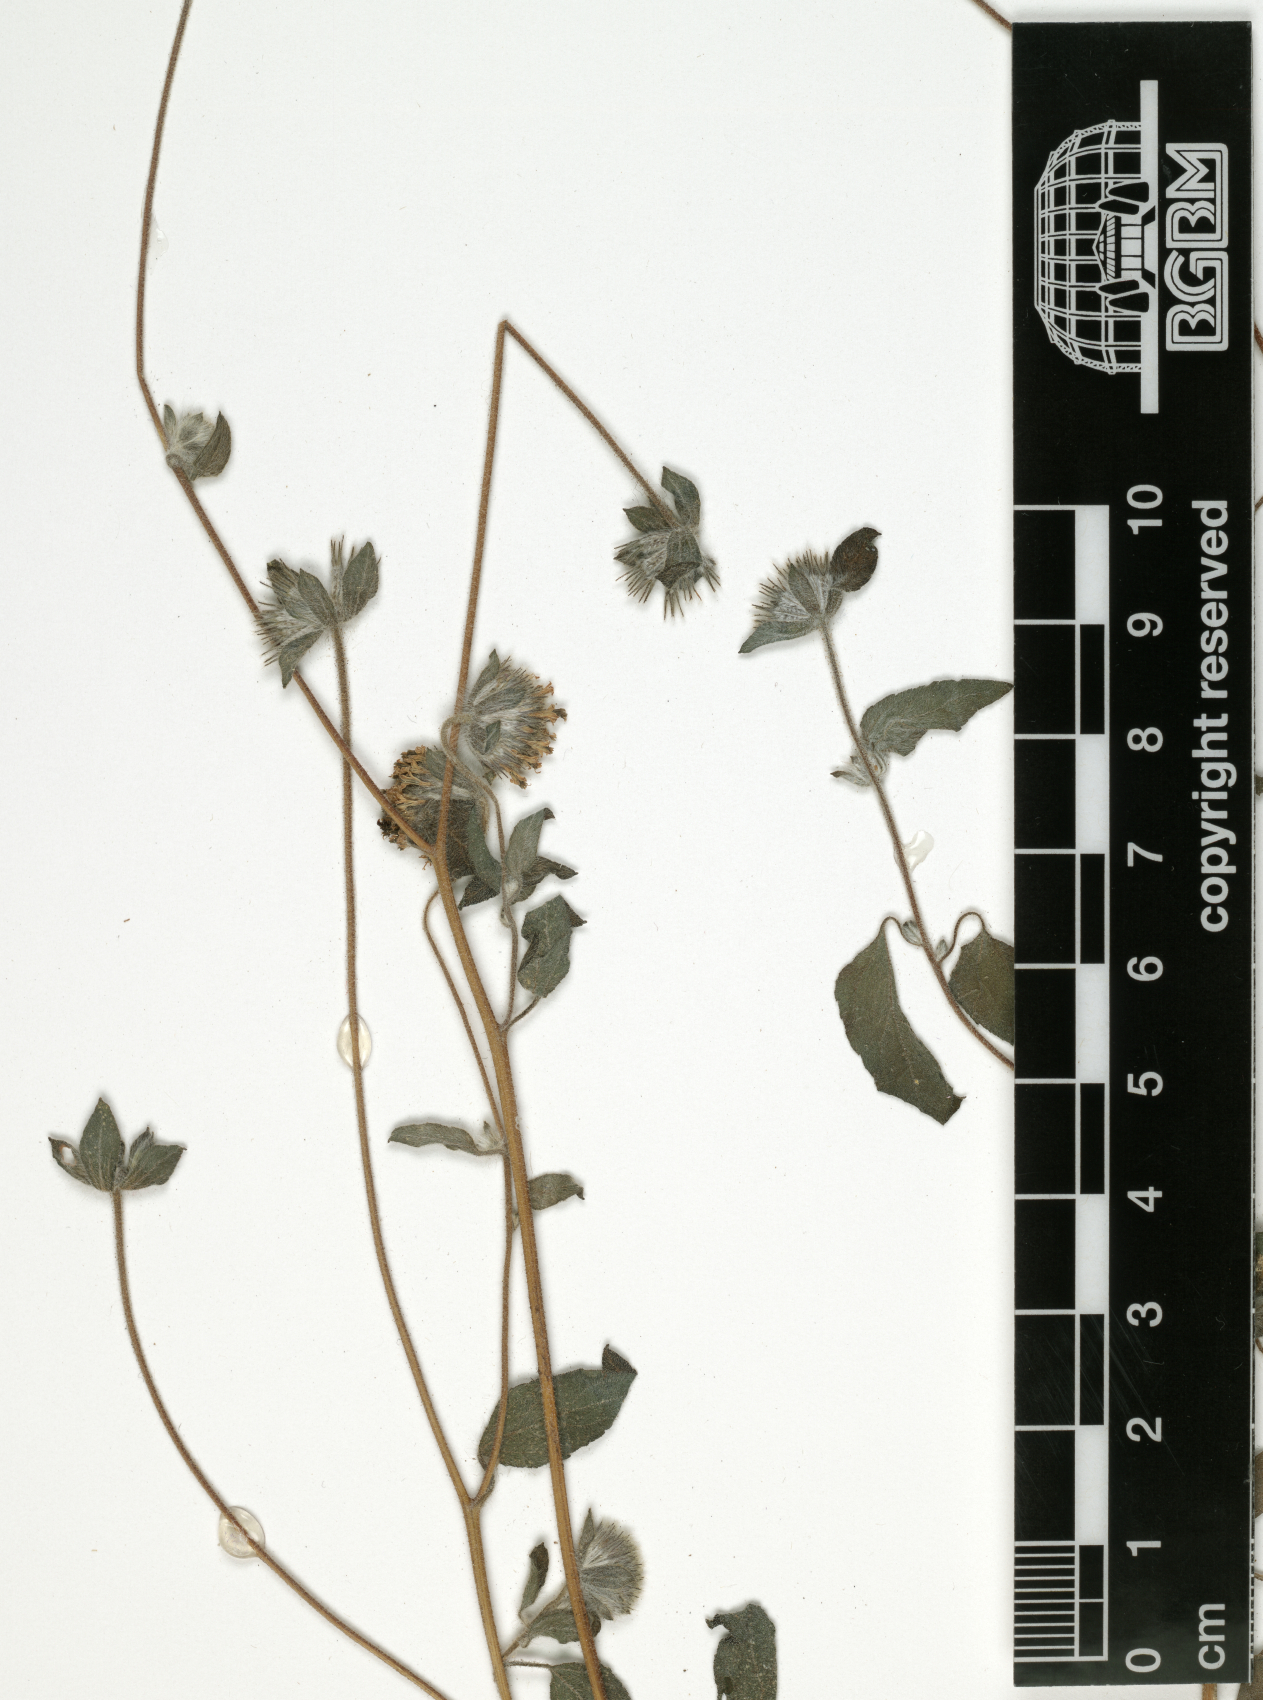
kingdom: Plantae
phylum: Tracheophyta
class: Magnoliopsida
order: Asterales
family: Asteraceae
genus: Lagascea
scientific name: Lagascea mollis
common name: Silkleaf
